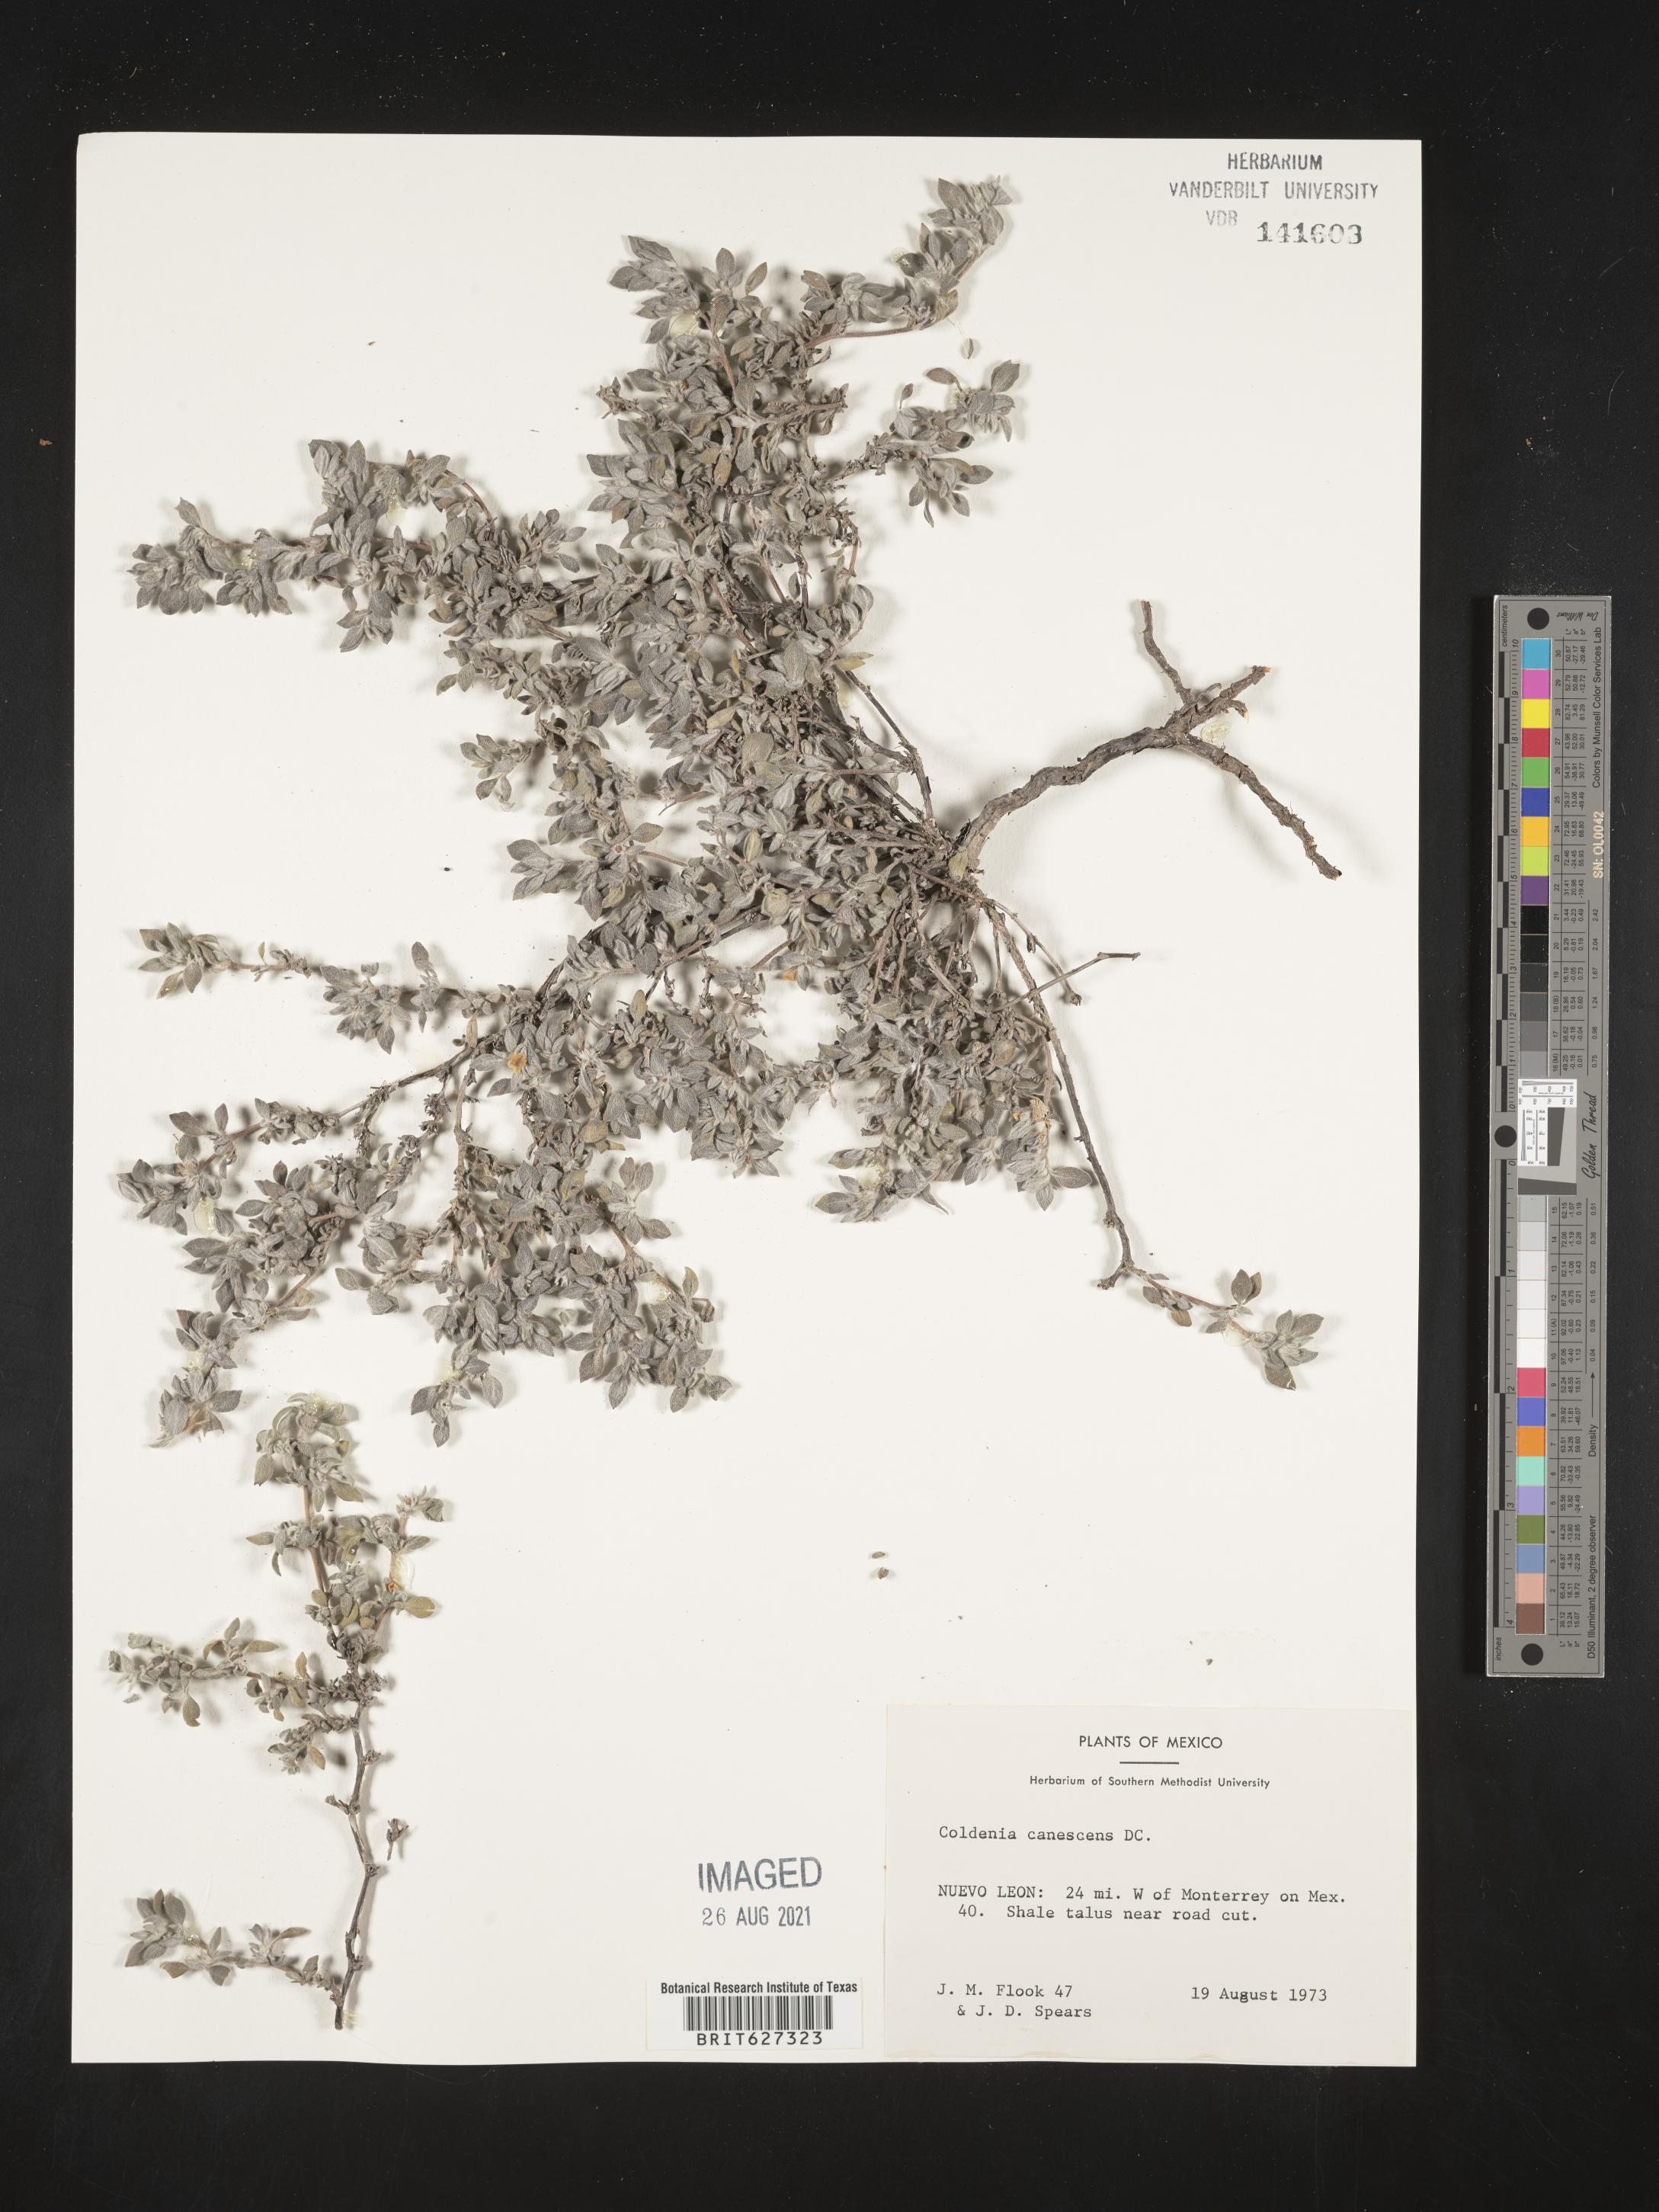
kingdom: Plantae
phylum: Tracheophyta
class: Magnoliopsida
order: Boraginales
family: Coldeniaceae
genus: Coldenia
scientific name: Coldenia
